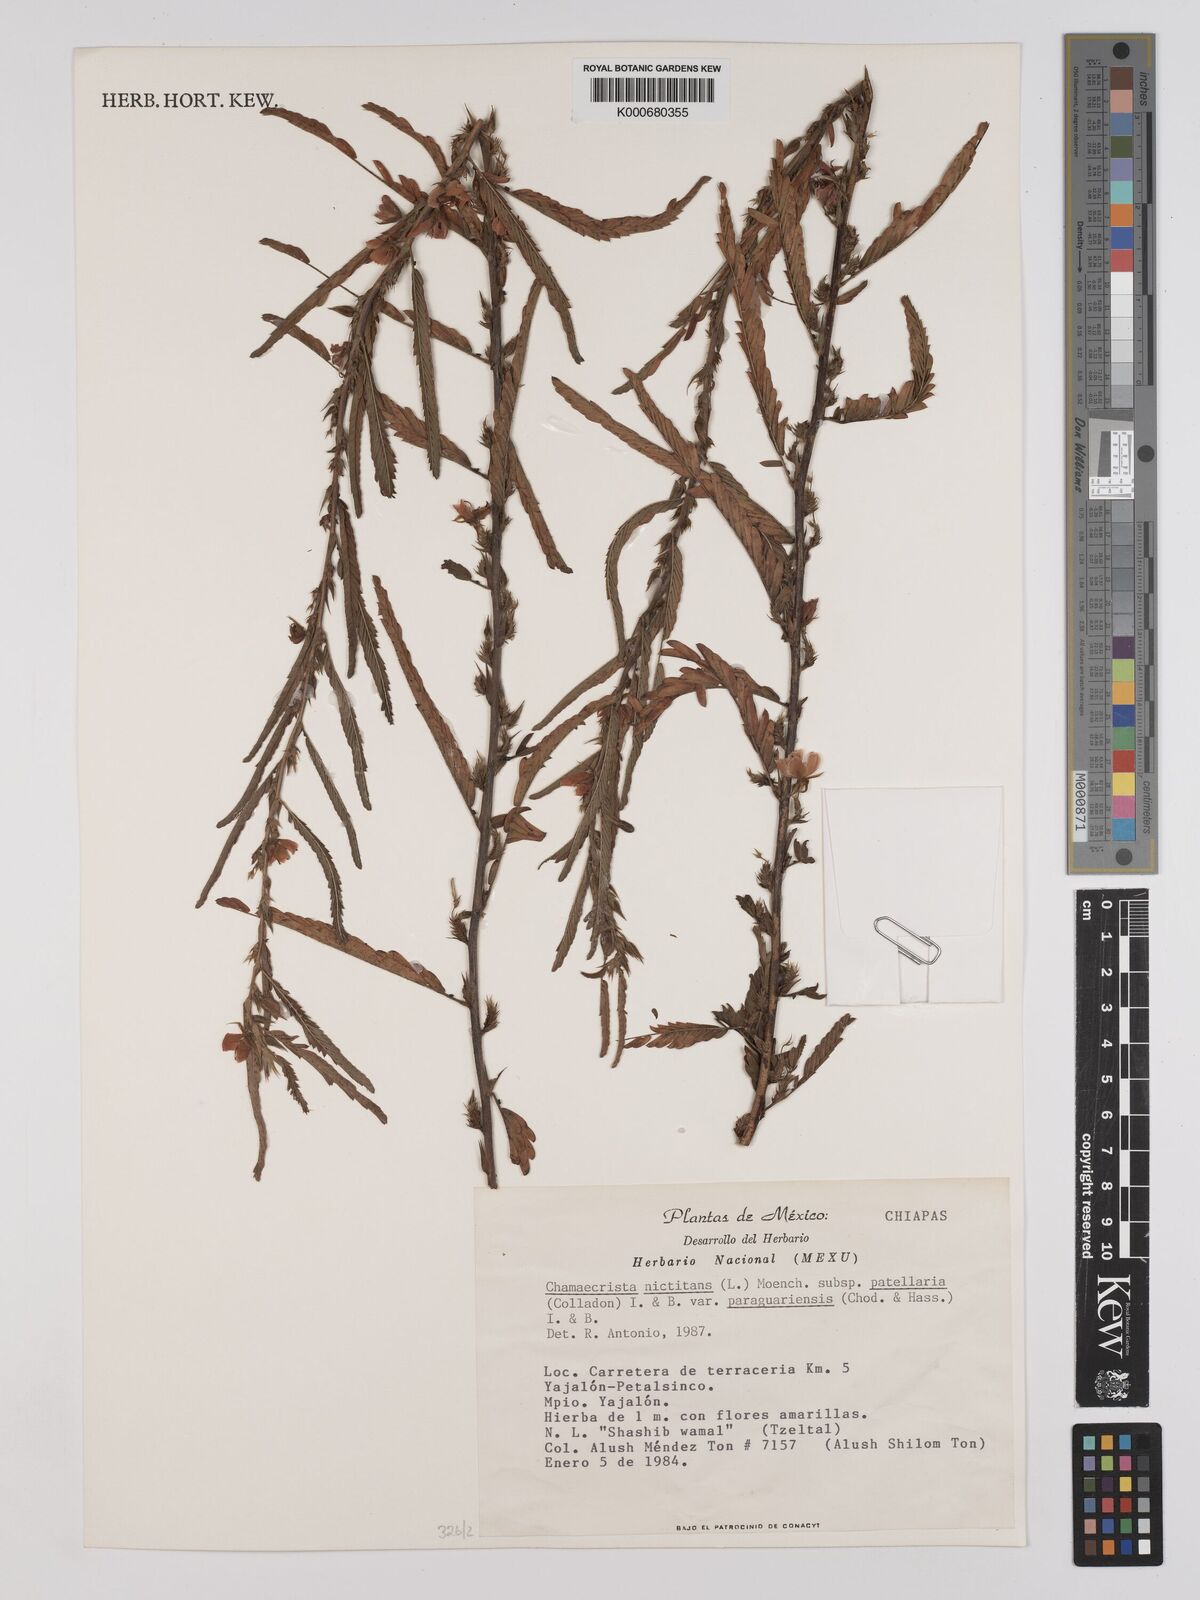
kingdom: Plantae
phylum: Tracheophyta
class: Magnoliopsida
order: Fabales
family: Fabaceae
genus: Chamaecrista
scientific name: Chamaecrista nictitans
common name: Sensitive cassia
